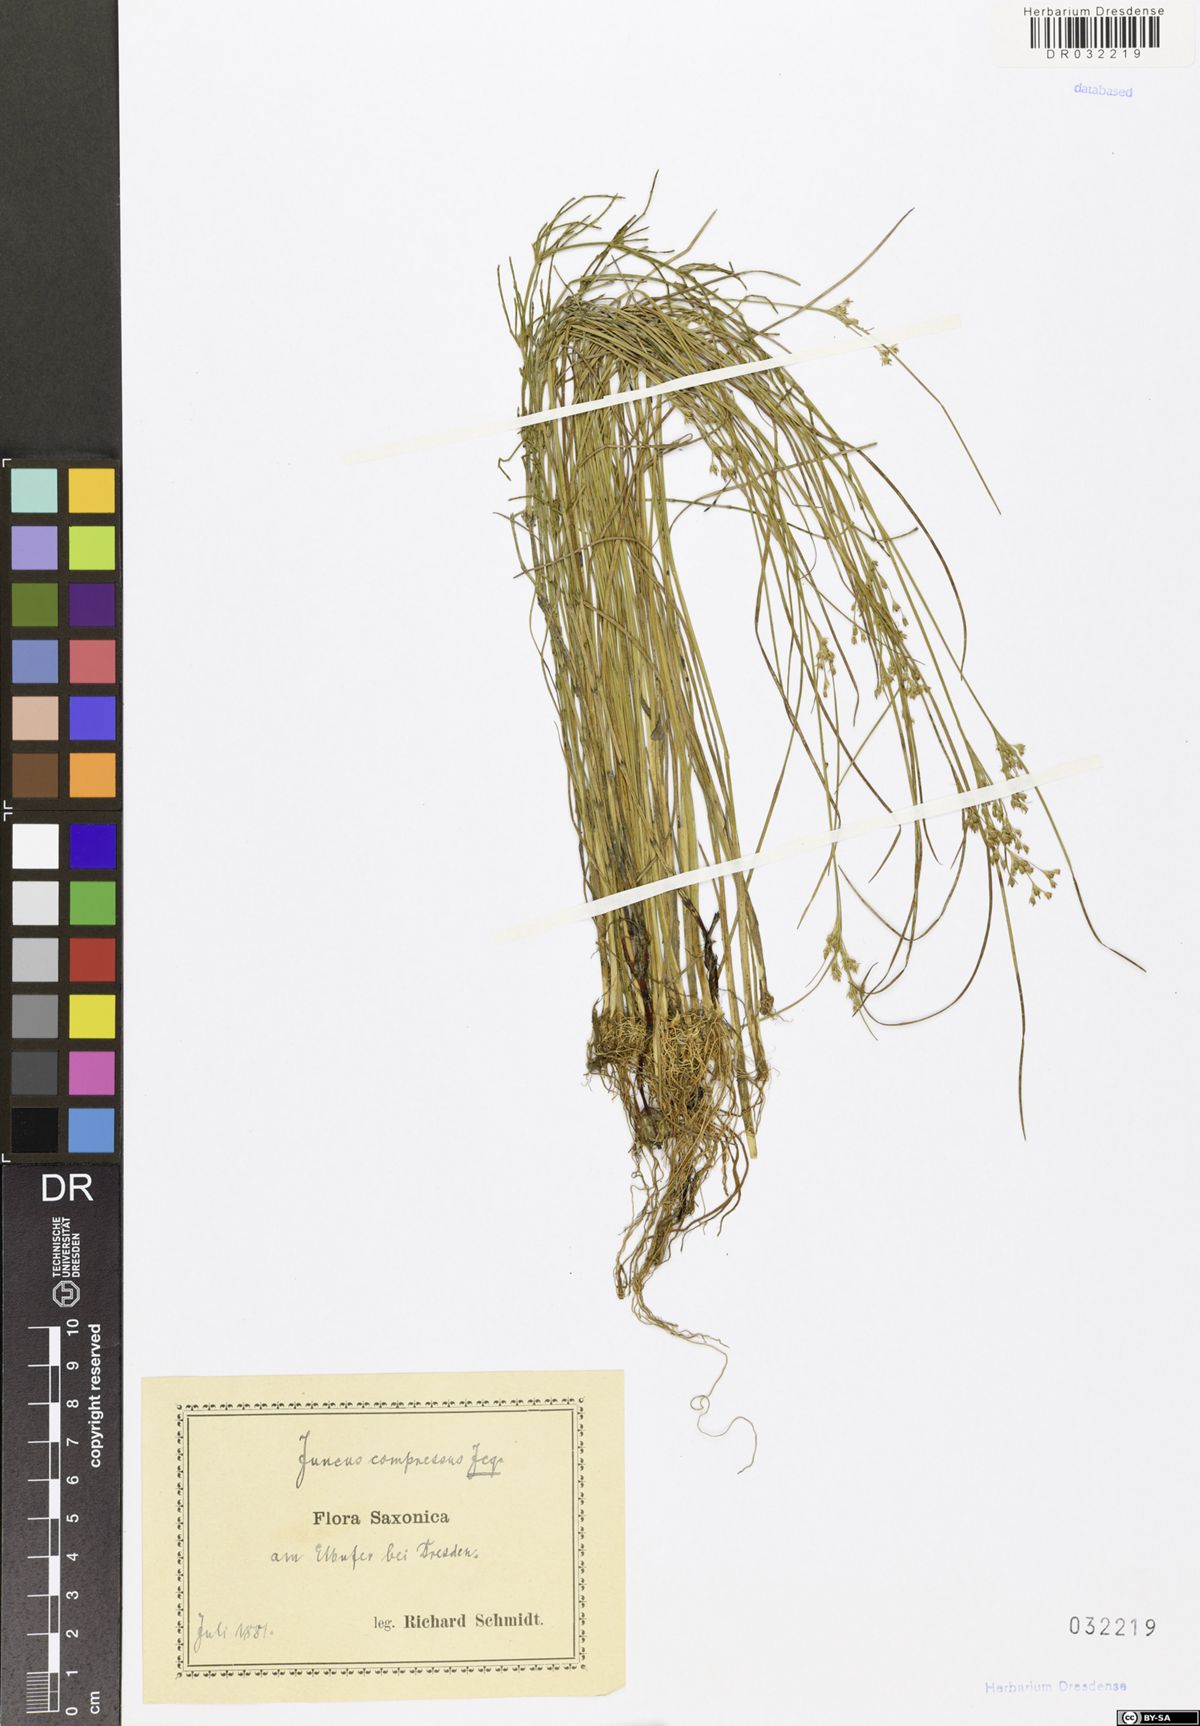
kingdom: Plantae
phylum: Tracheophyta
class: Liliopsida
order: Poales
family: Juncaceae
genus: Juncus
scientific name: Juncus compressus
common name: Round-fruited rush
